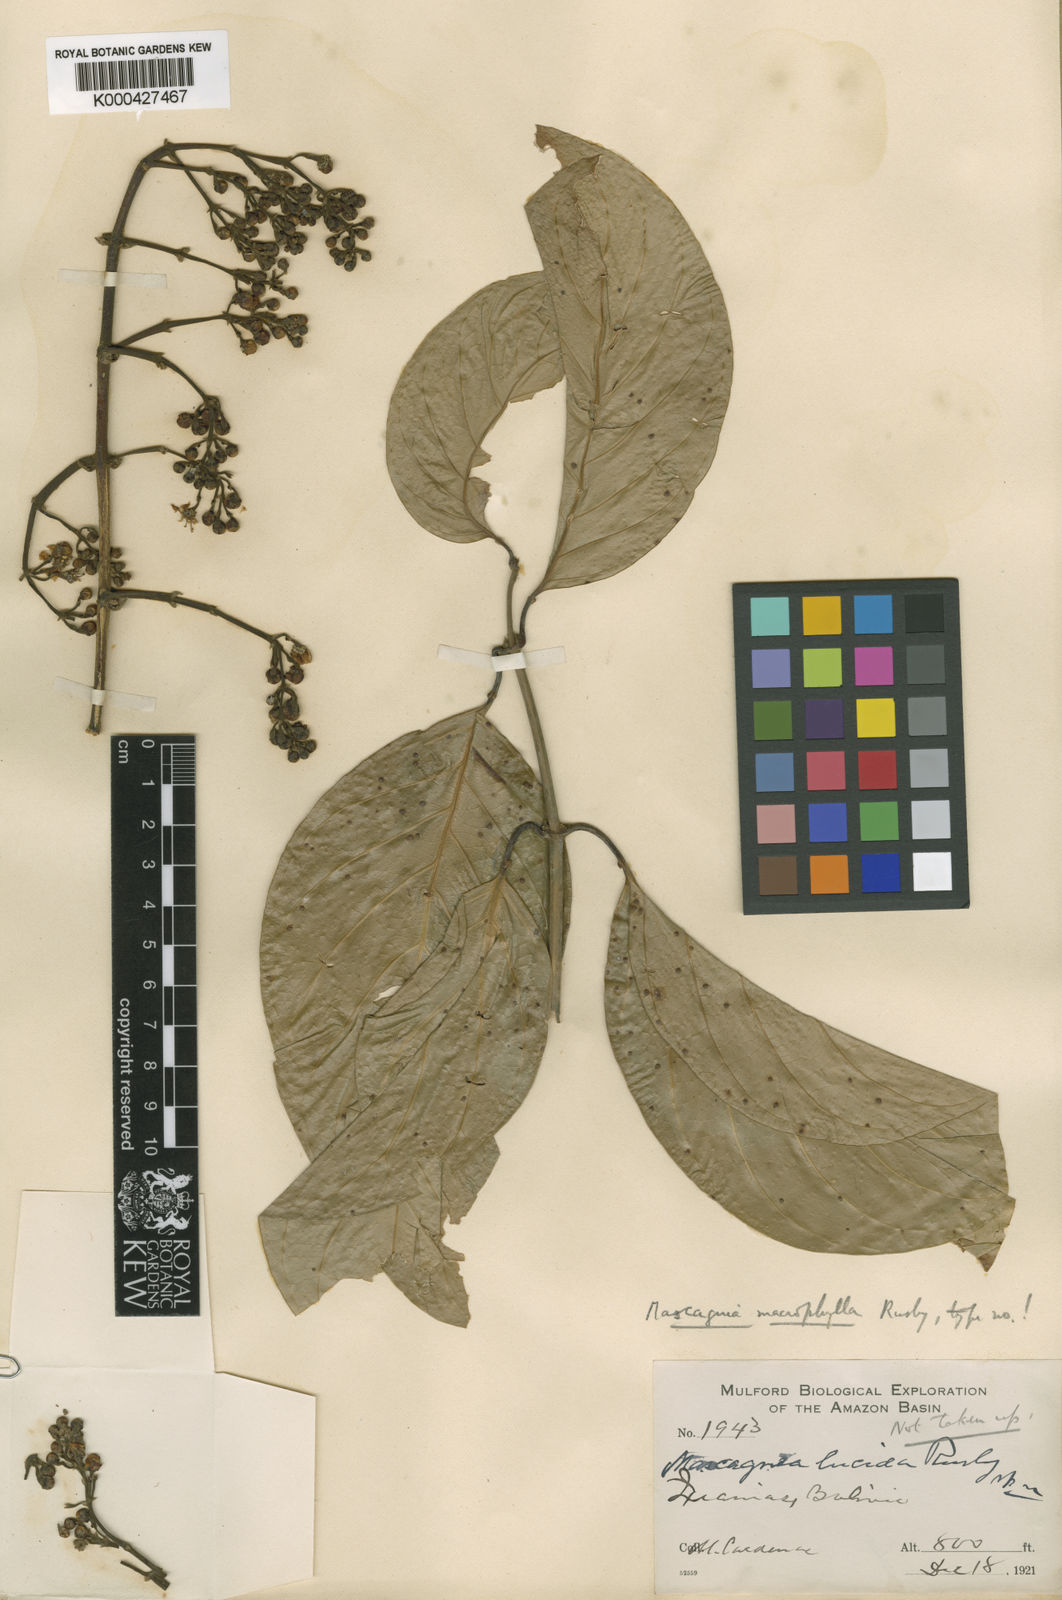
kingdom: Plantae
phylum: Tracheophyta
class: Magnoliopsida
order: Malpighiales
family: Malpighiaceae
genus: Adelphia
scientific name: Adelphia macrophylla
